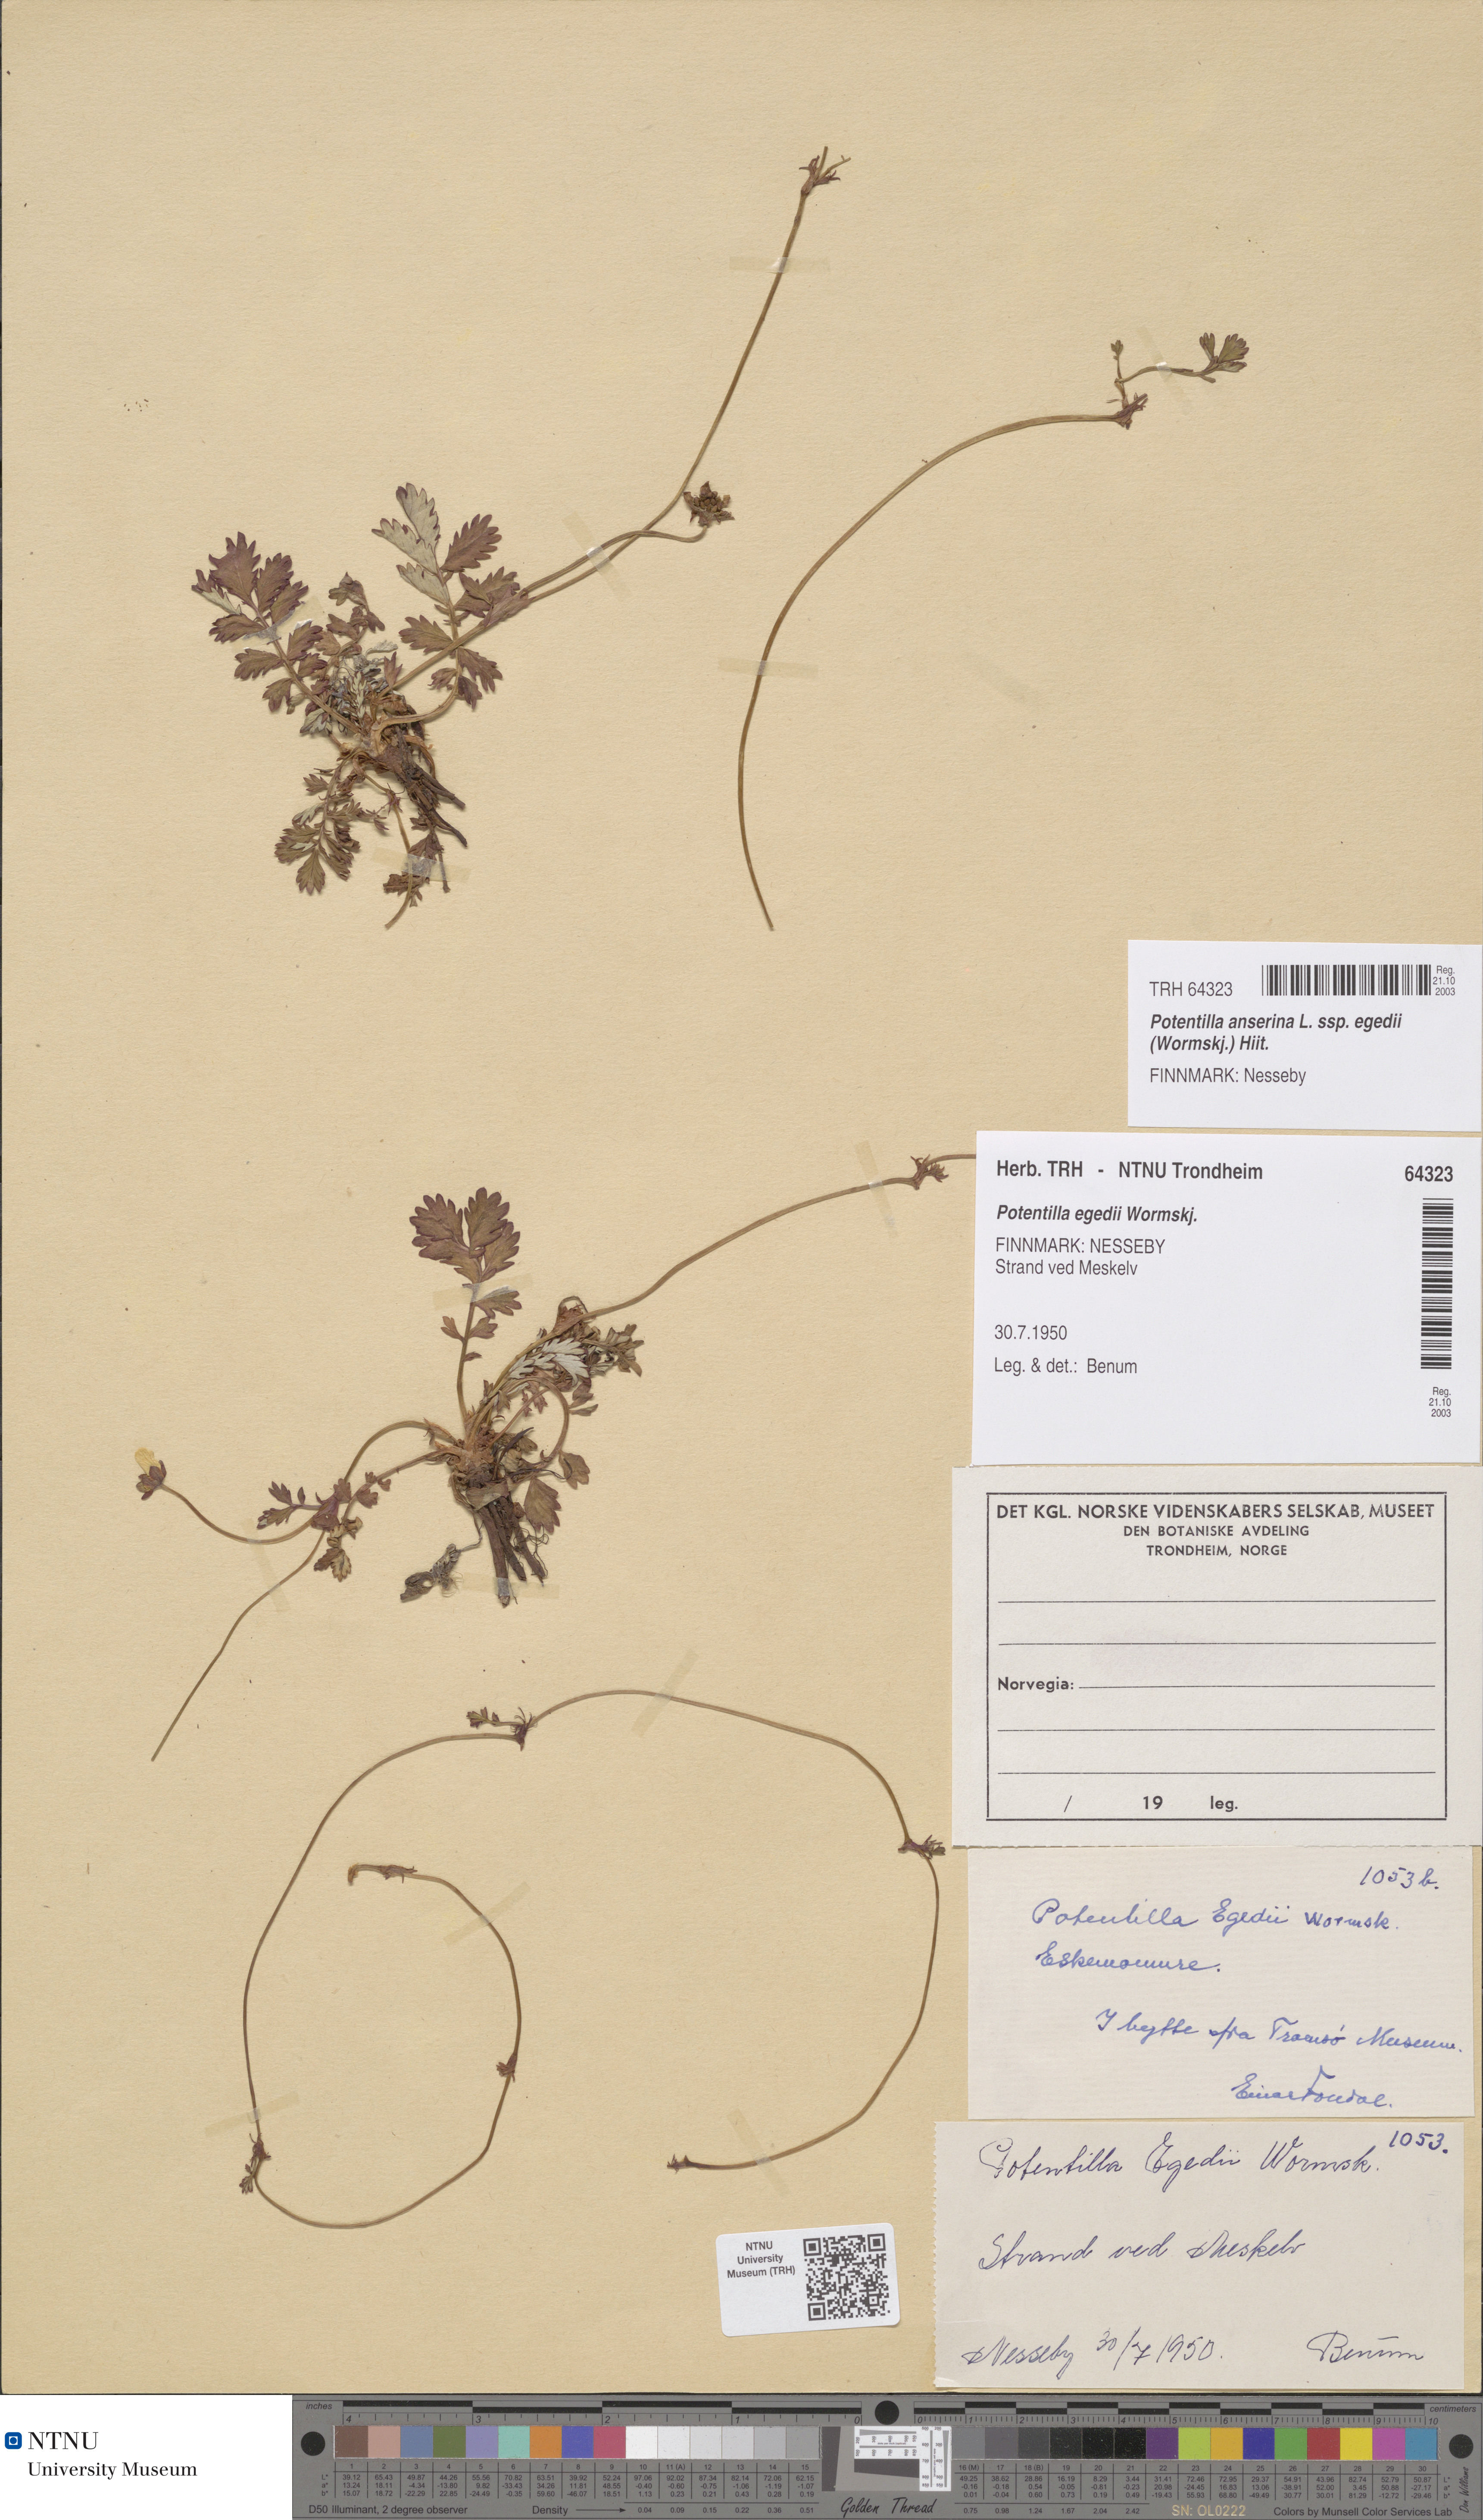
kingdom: Plantae
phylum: Tracheophyta
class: Magnoliopsida
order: Rosales
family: Rosaceae
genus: Argentina
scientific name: Argentina anserina
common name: Common silverweed
